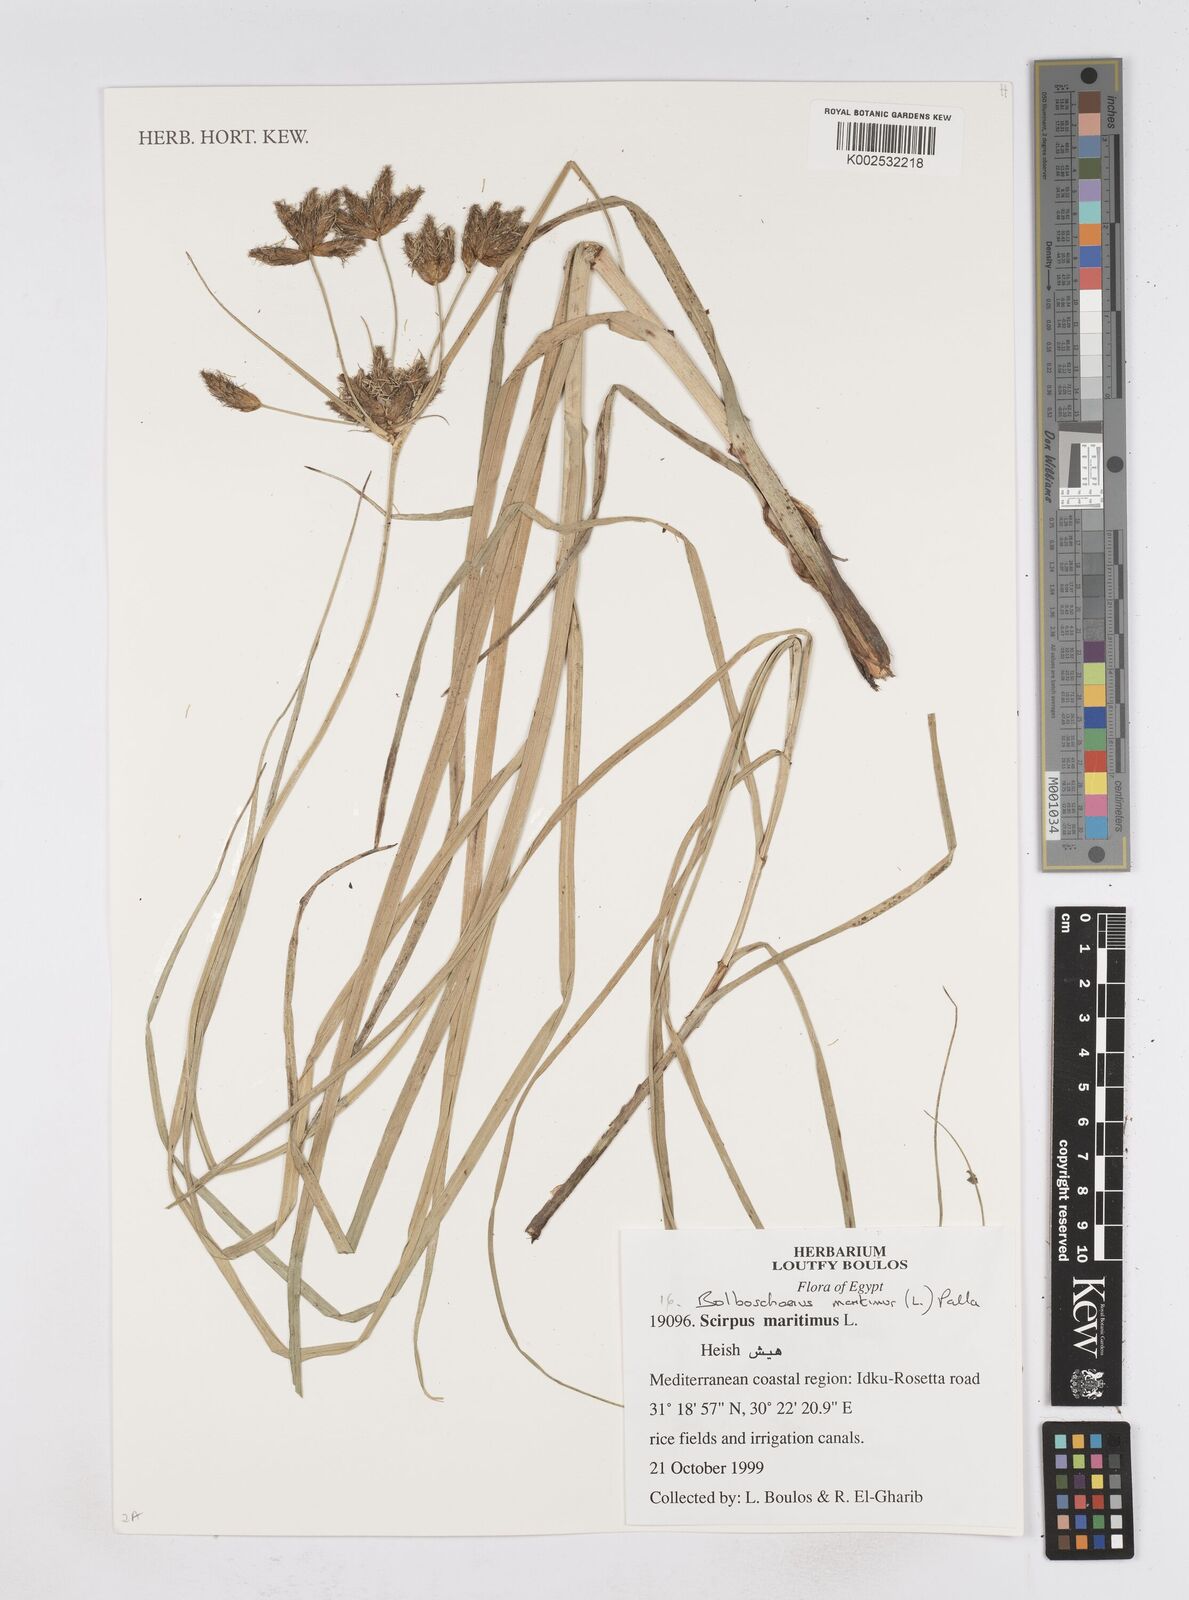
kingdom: Plantae
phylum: Tracheophyta
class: Liliopsida
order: Poales
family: Cyperaceae
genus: Bolboschoenus
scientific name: Bolboschoenus maritimus
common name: Sea club-rush
